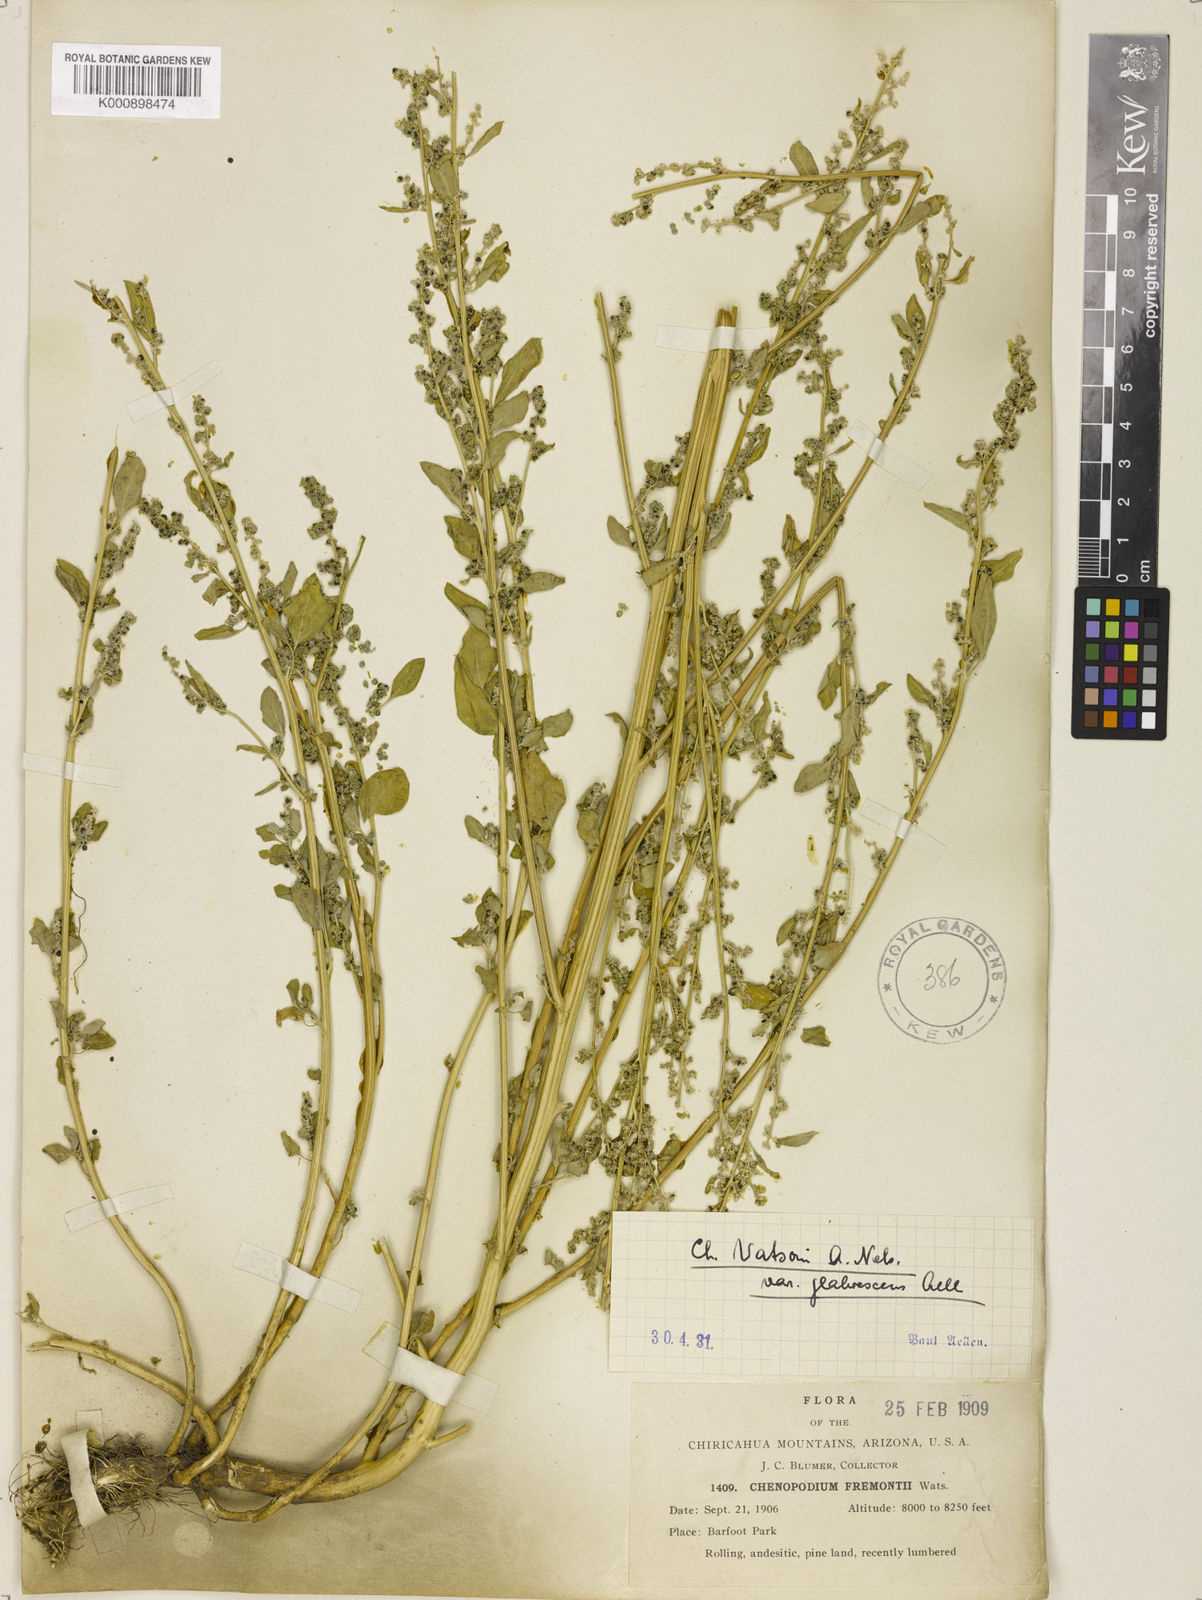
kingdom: Plantae
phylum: Tracheophyta
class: Magnoliopsida
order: Caryophyllales
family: Amaranthaceae
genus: Chenopodium
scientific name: Chenopodium neomexicanum
